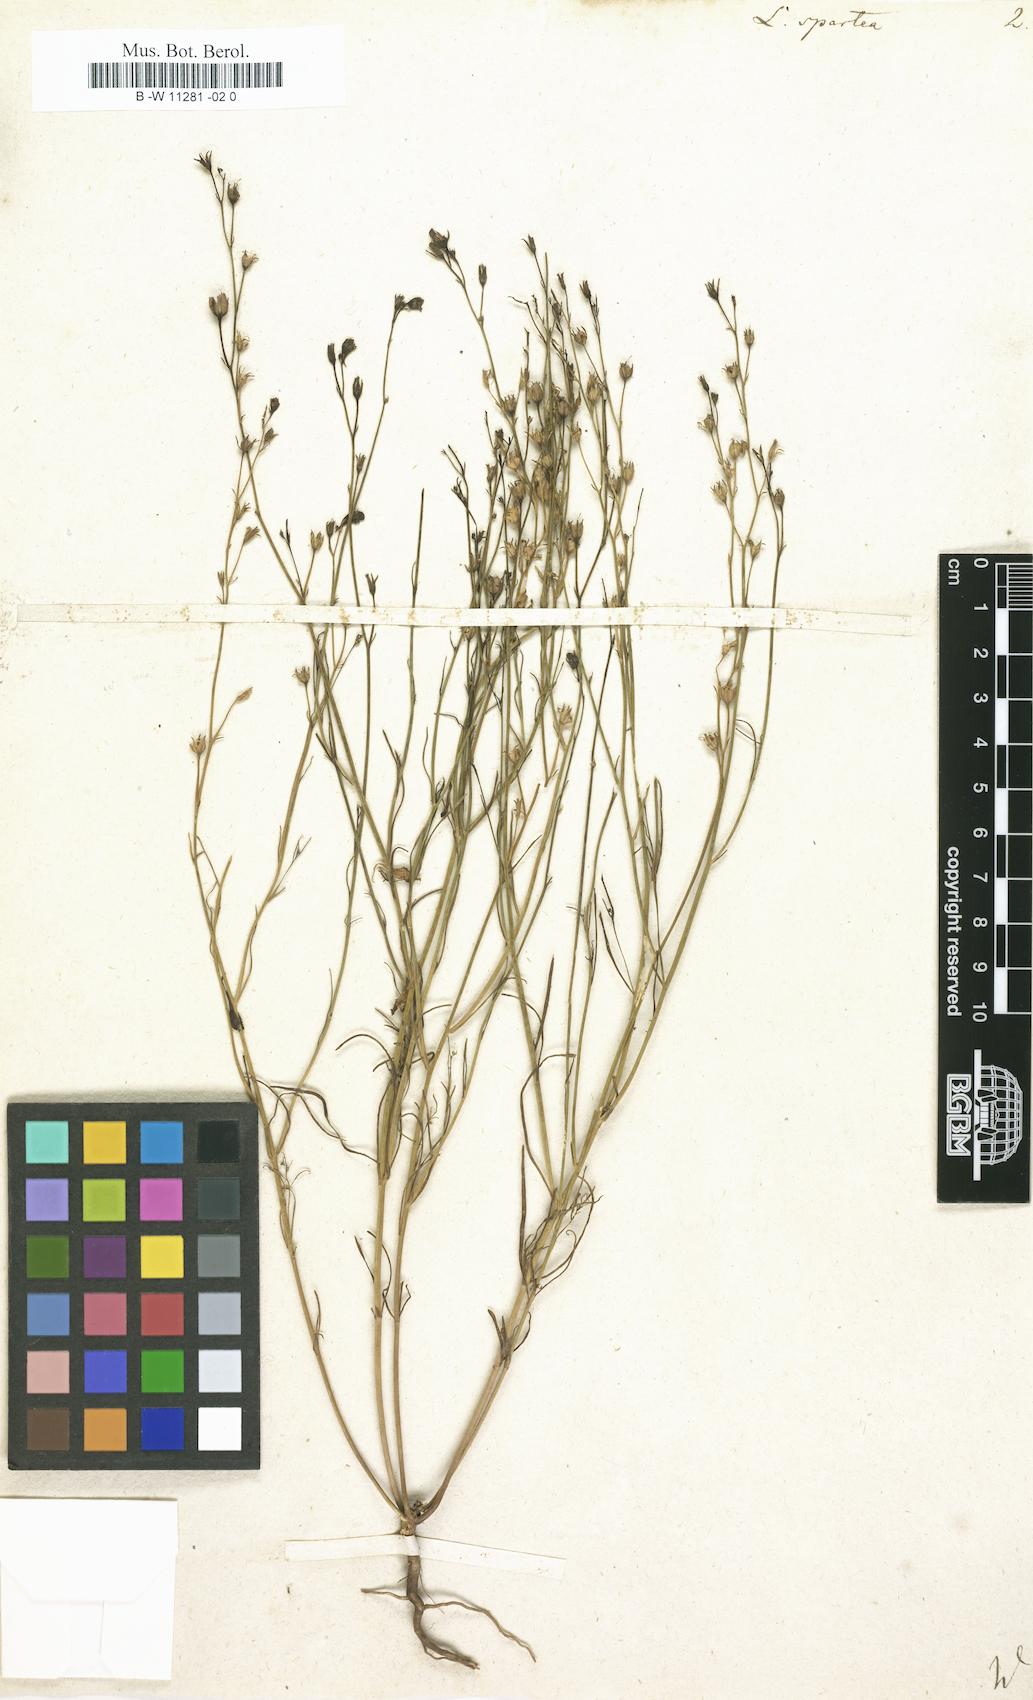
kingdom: Plantae
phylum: Tracheophyta
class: Magnoliopsida
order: Lamiales
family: Plantaginaceae
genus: Linaria
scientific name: Linaria spartea
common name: Ballast toadflax
